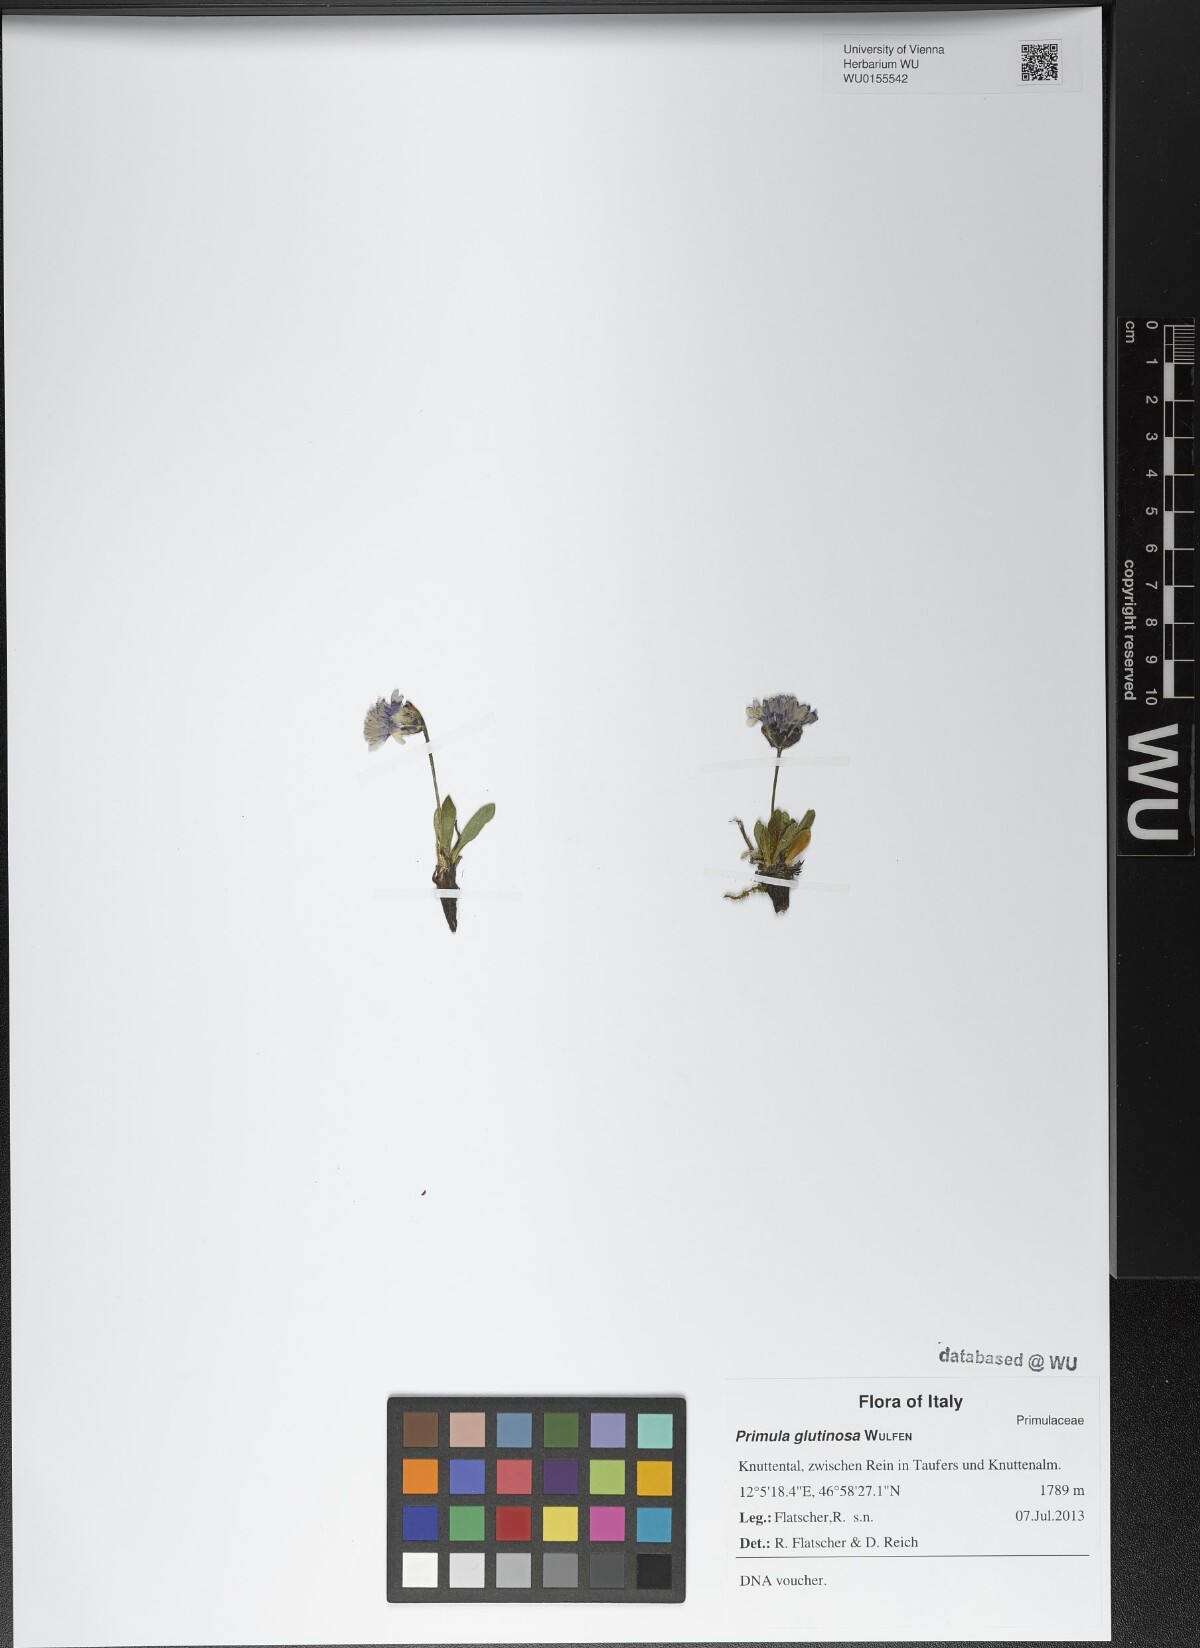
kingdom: Plantae
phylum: Tracheophyta
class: Magnoliopsida
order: Ericales
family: Primulaceae
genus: Primula
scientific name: Primula glutinosa
